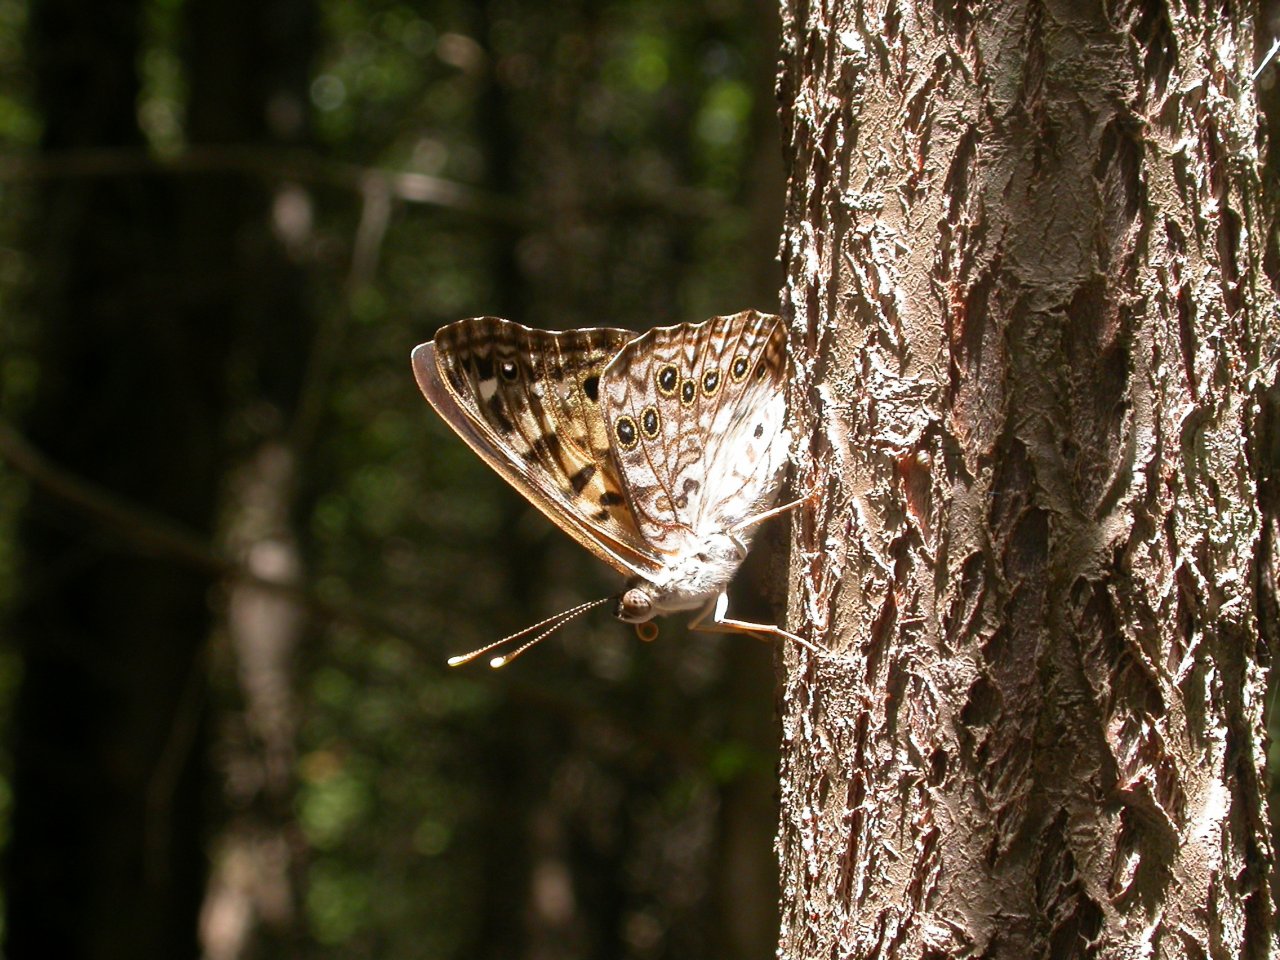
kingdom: Animalia
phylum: Arthropoda
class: Insecta
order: Lepidoptera
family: Nymphalidae
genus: Asterocampa
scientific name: Asterocampa celtis
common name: Hackberry Emperor
